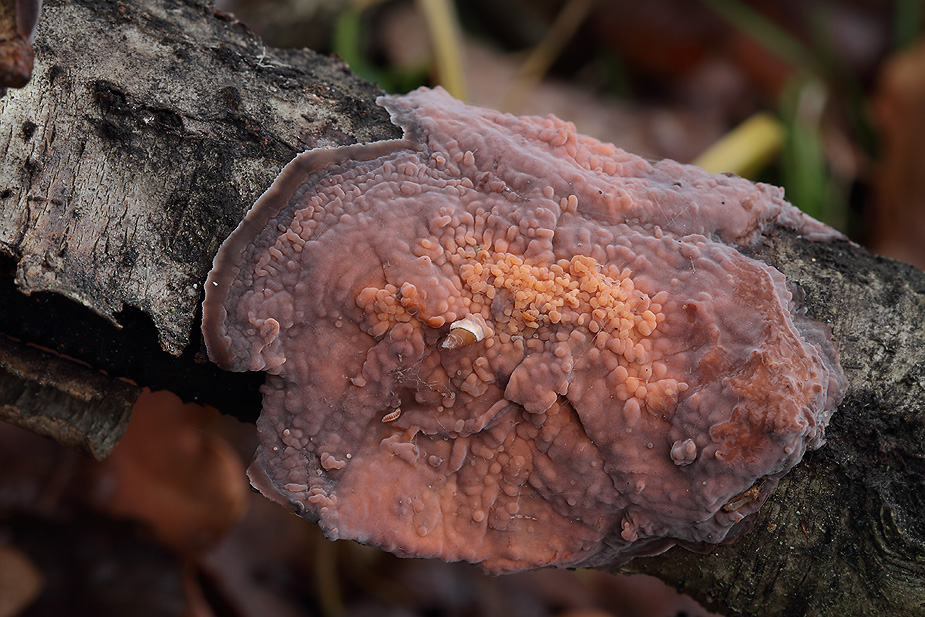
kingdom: Fungi
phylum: Basidiomycota
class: Pucciniomycetes
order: Platygloeales
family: Platygloeaceae
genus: Platygloea
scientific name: Platygloea
